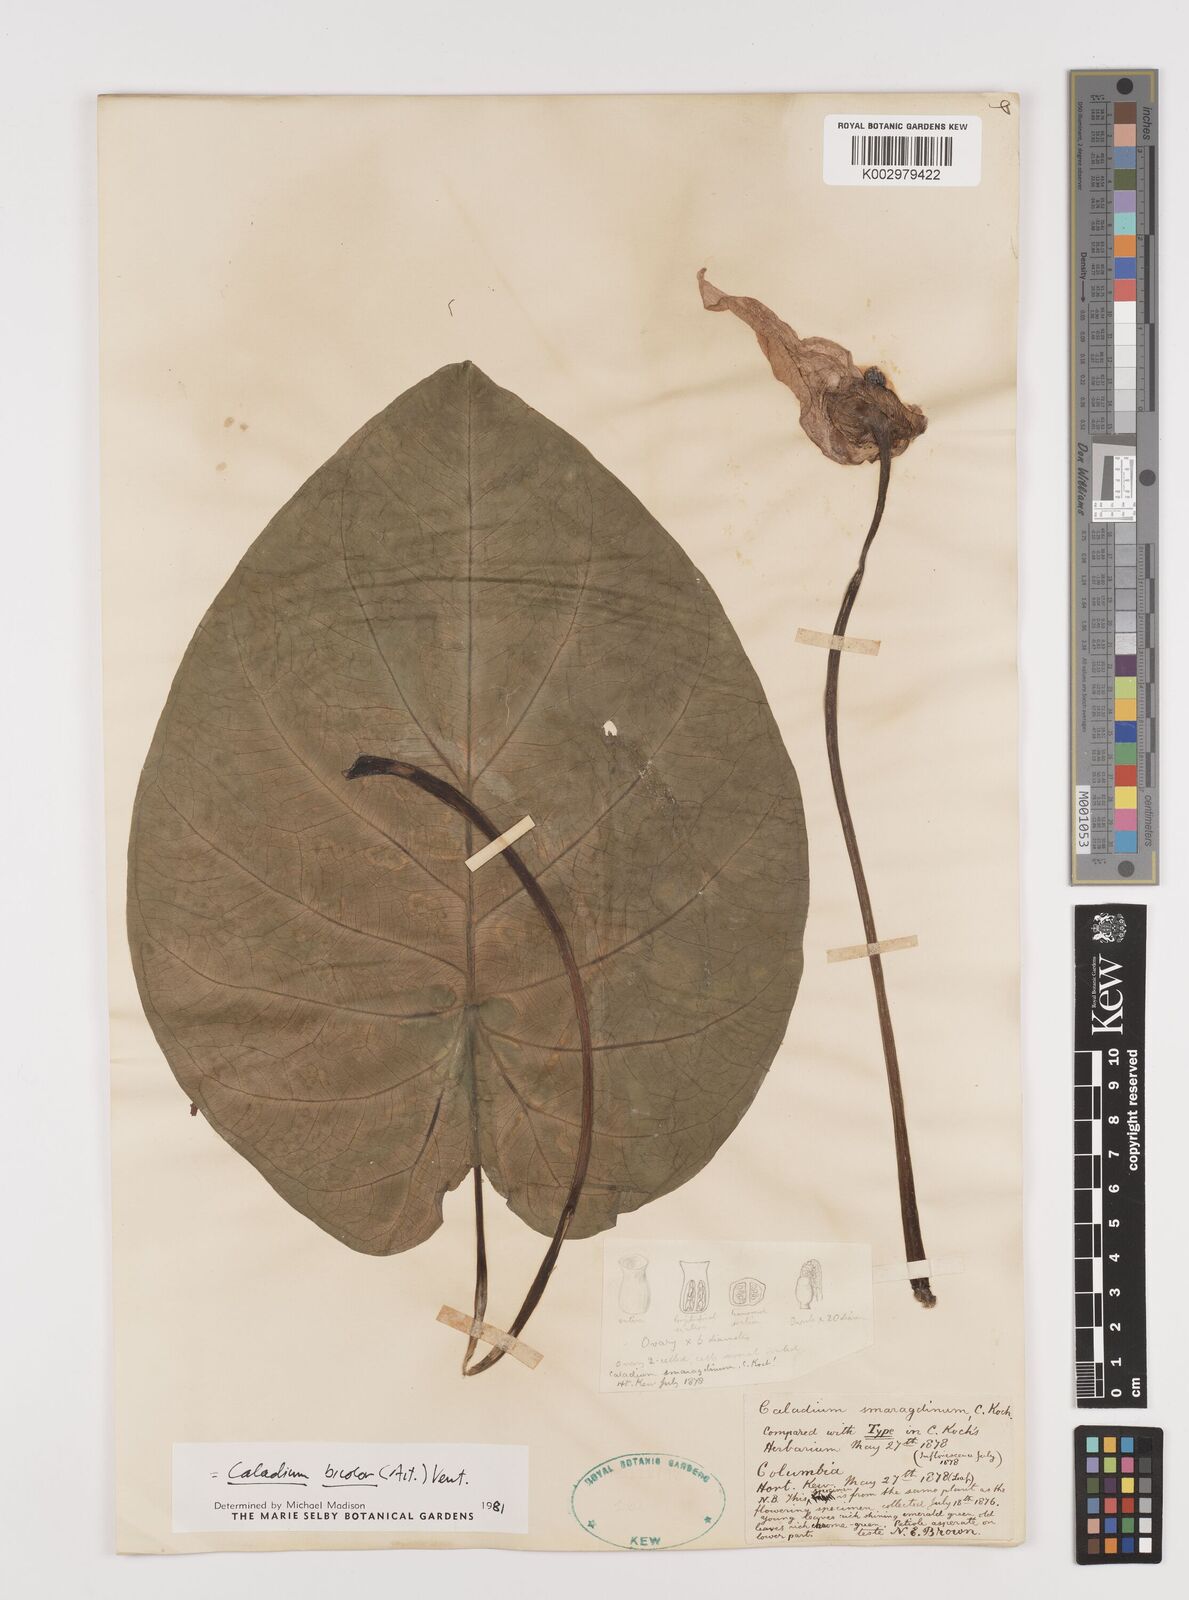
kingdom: Plantae
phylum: Tracheophyta
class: Liliopsida
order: Alismatales
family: Araceae
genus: Caladium
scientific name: Caladium bicolor
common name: Artist's pallet
